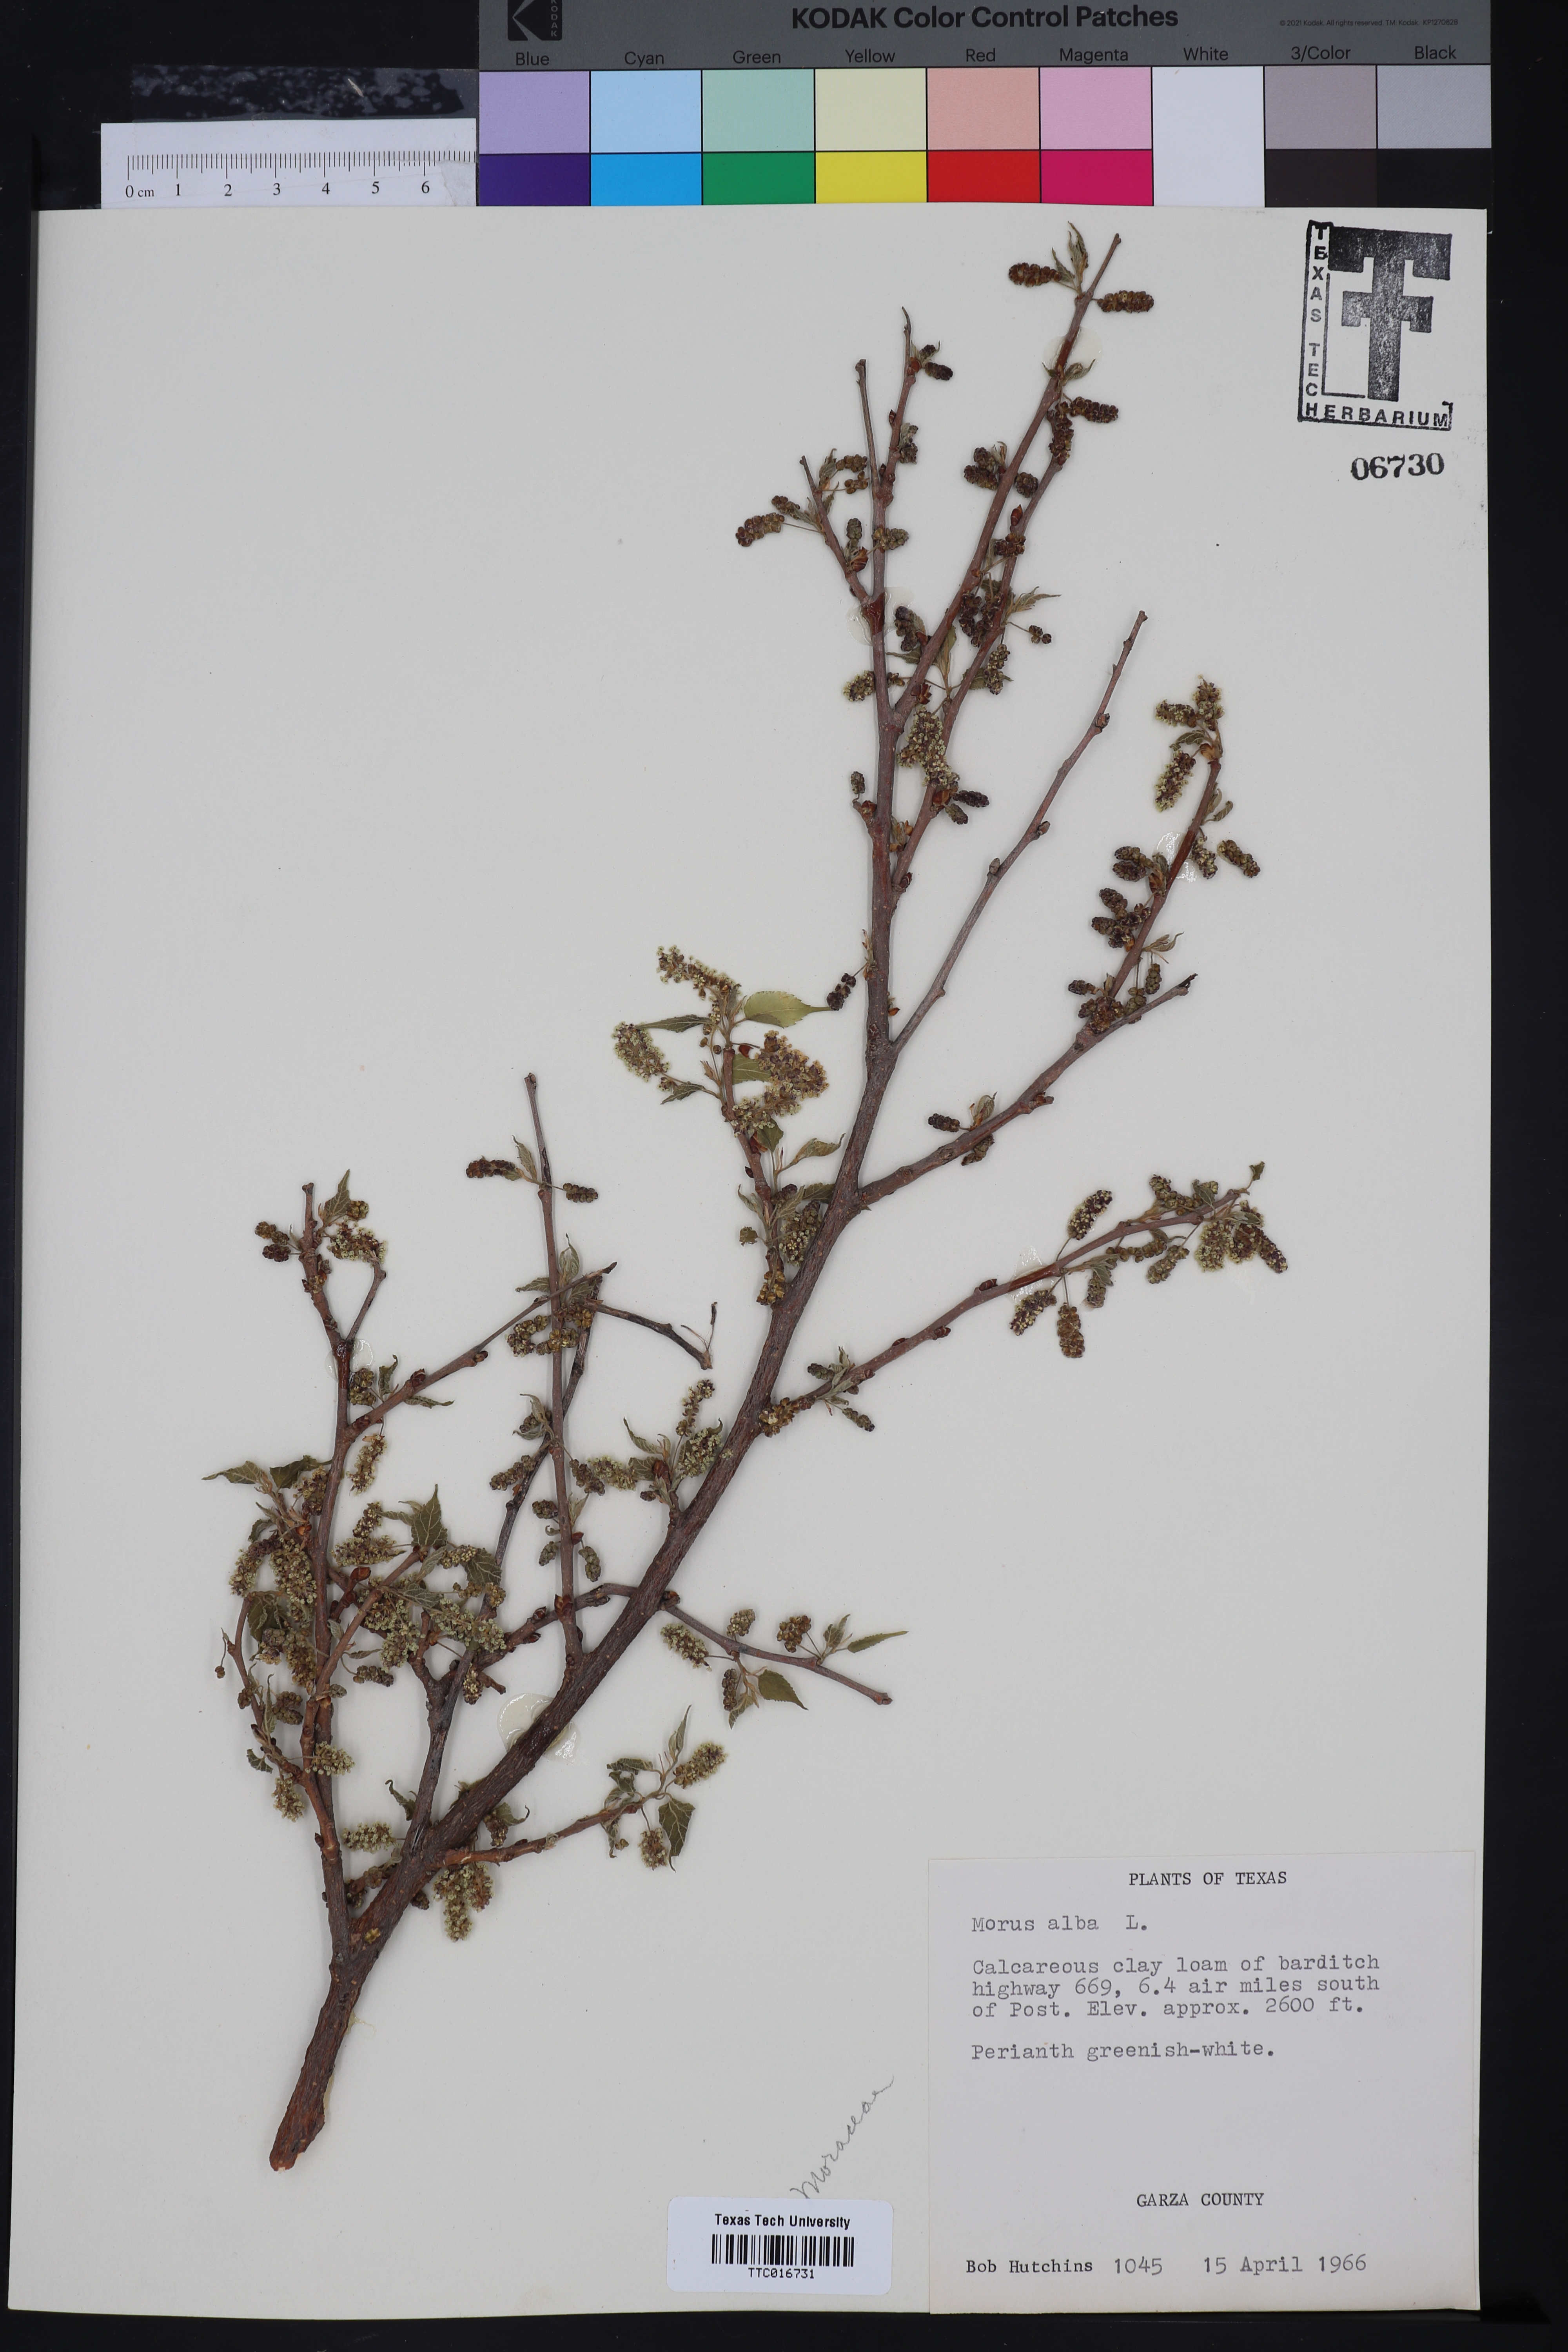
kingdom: Plantae
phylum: Tracheophyta
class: Magnoliopsida
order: Rosales
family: Moraceae
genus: Morus
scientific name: Morus alba
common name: White mulberry
